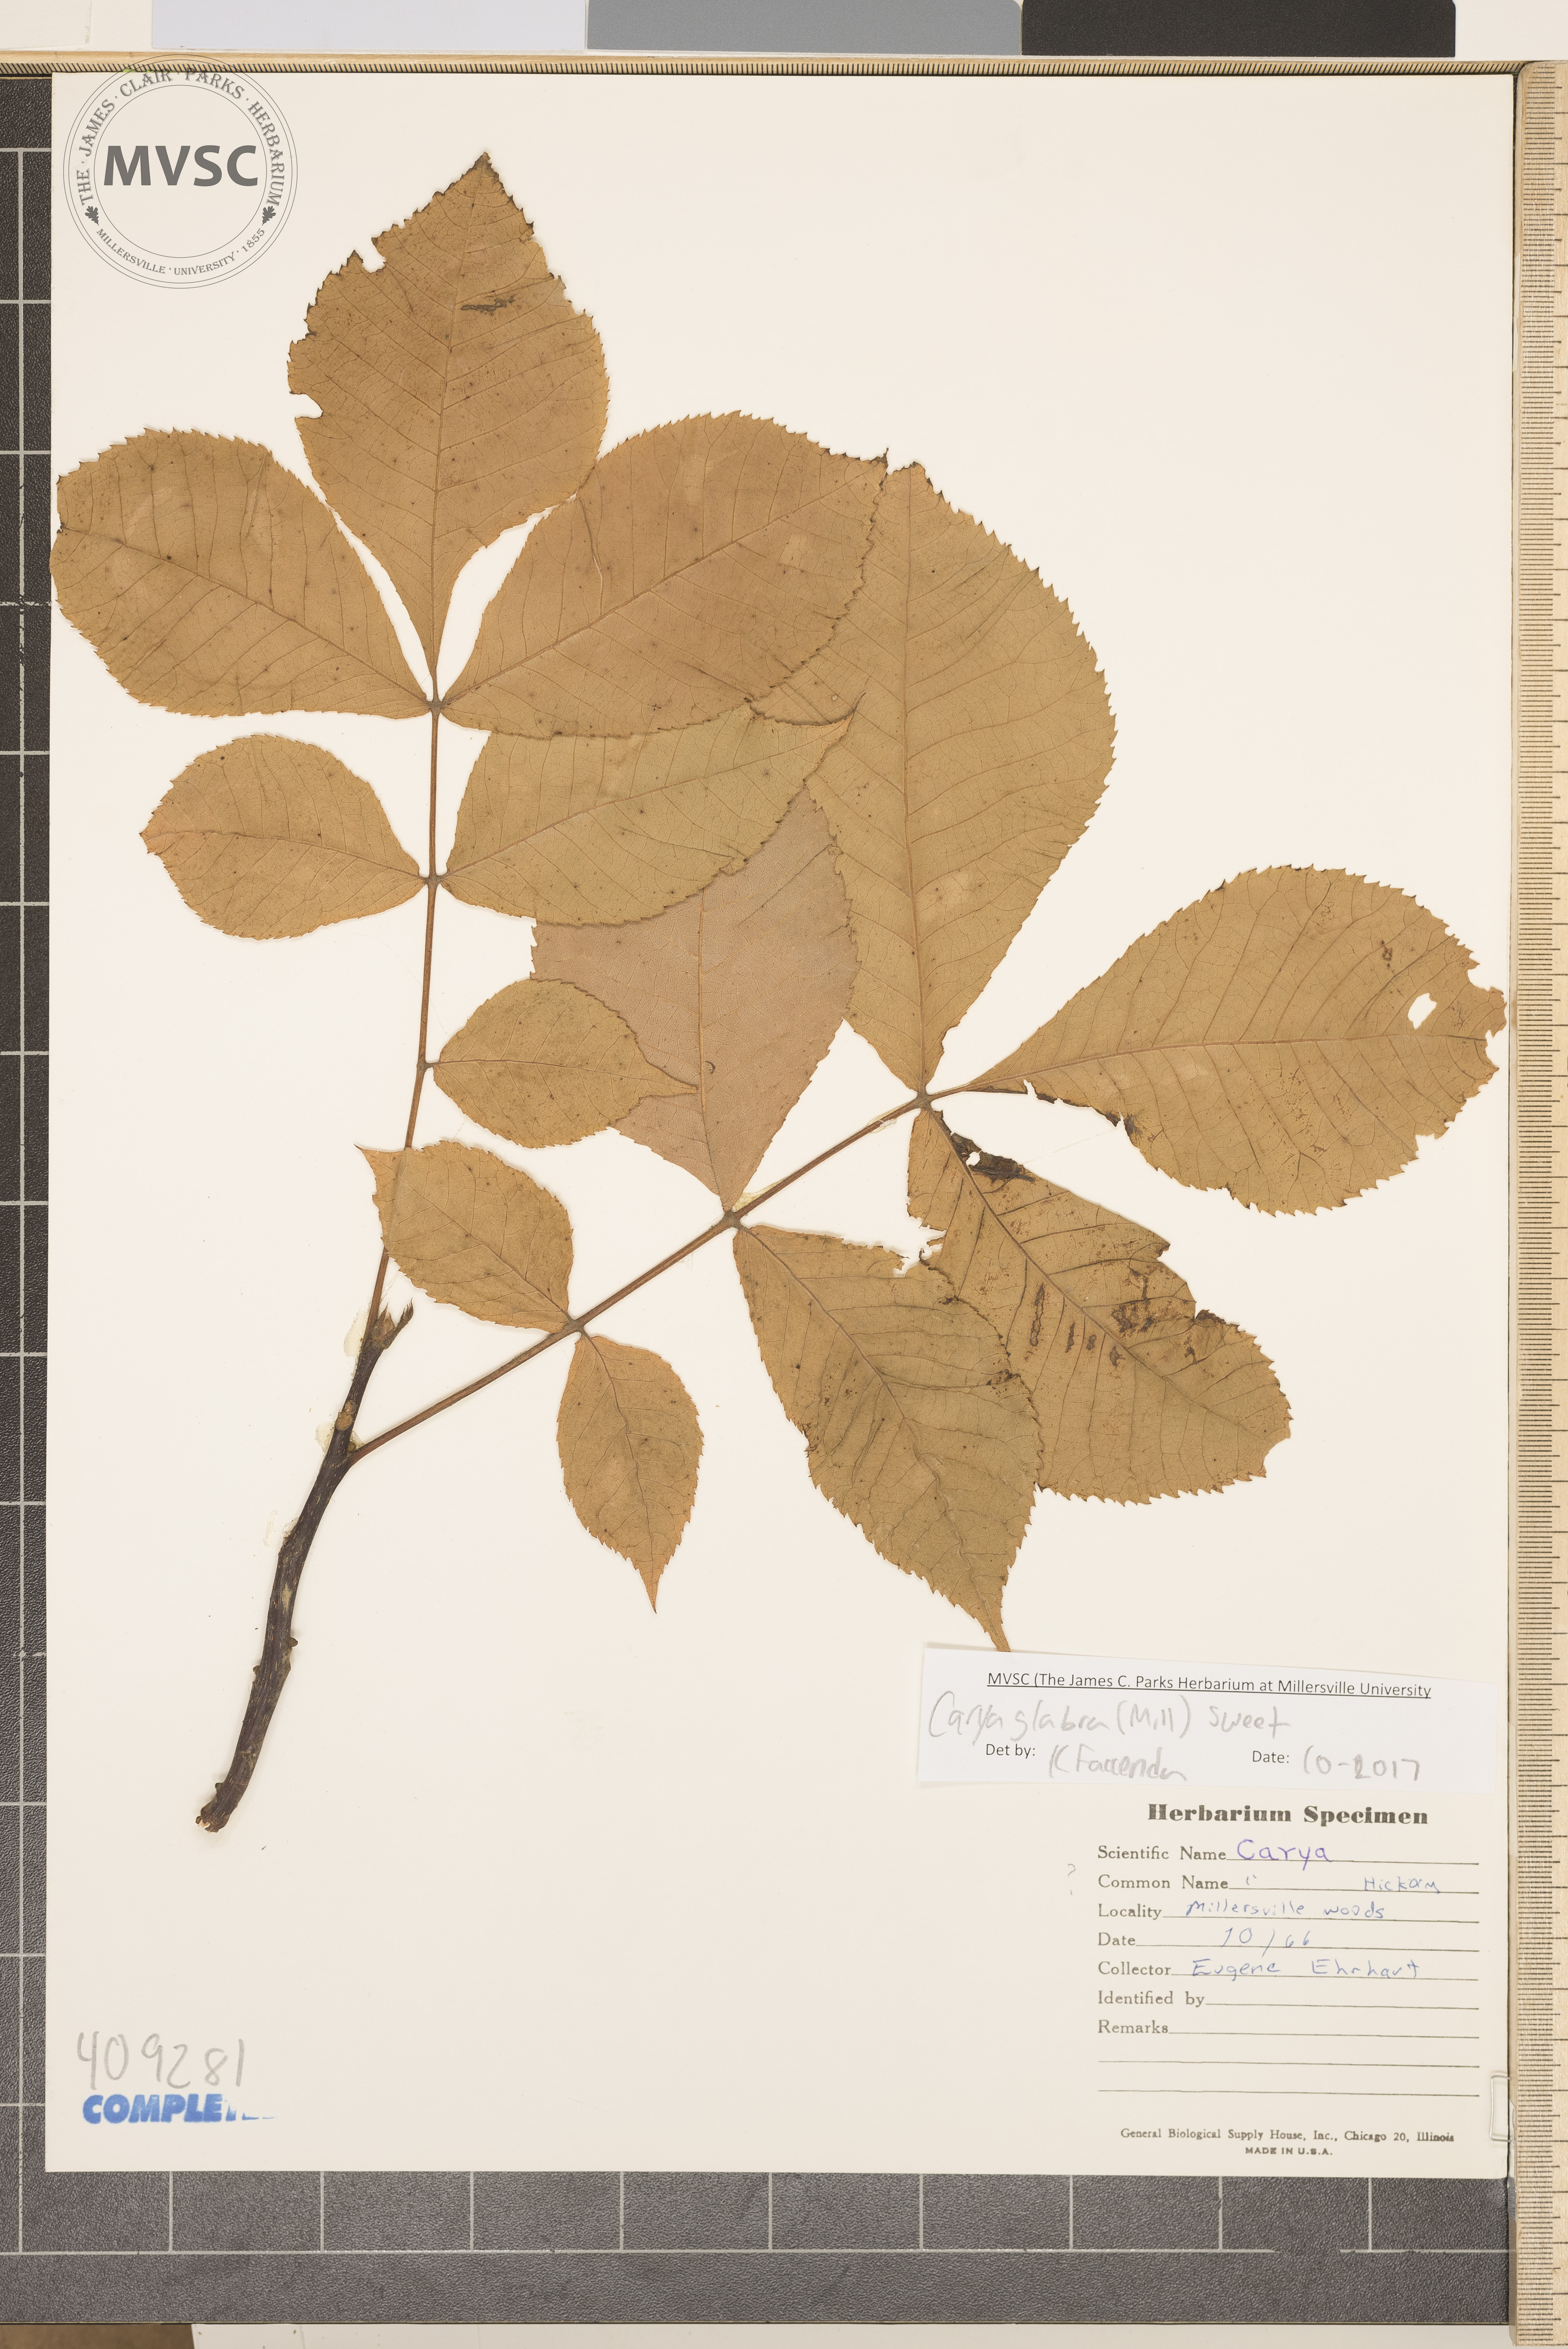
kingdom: Plantae
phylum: Tracheophyta
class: Magnoliopsida
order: Fagales
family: Juglandaceae
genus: Carya
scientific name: Carya glabra
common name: Pignut hickory
